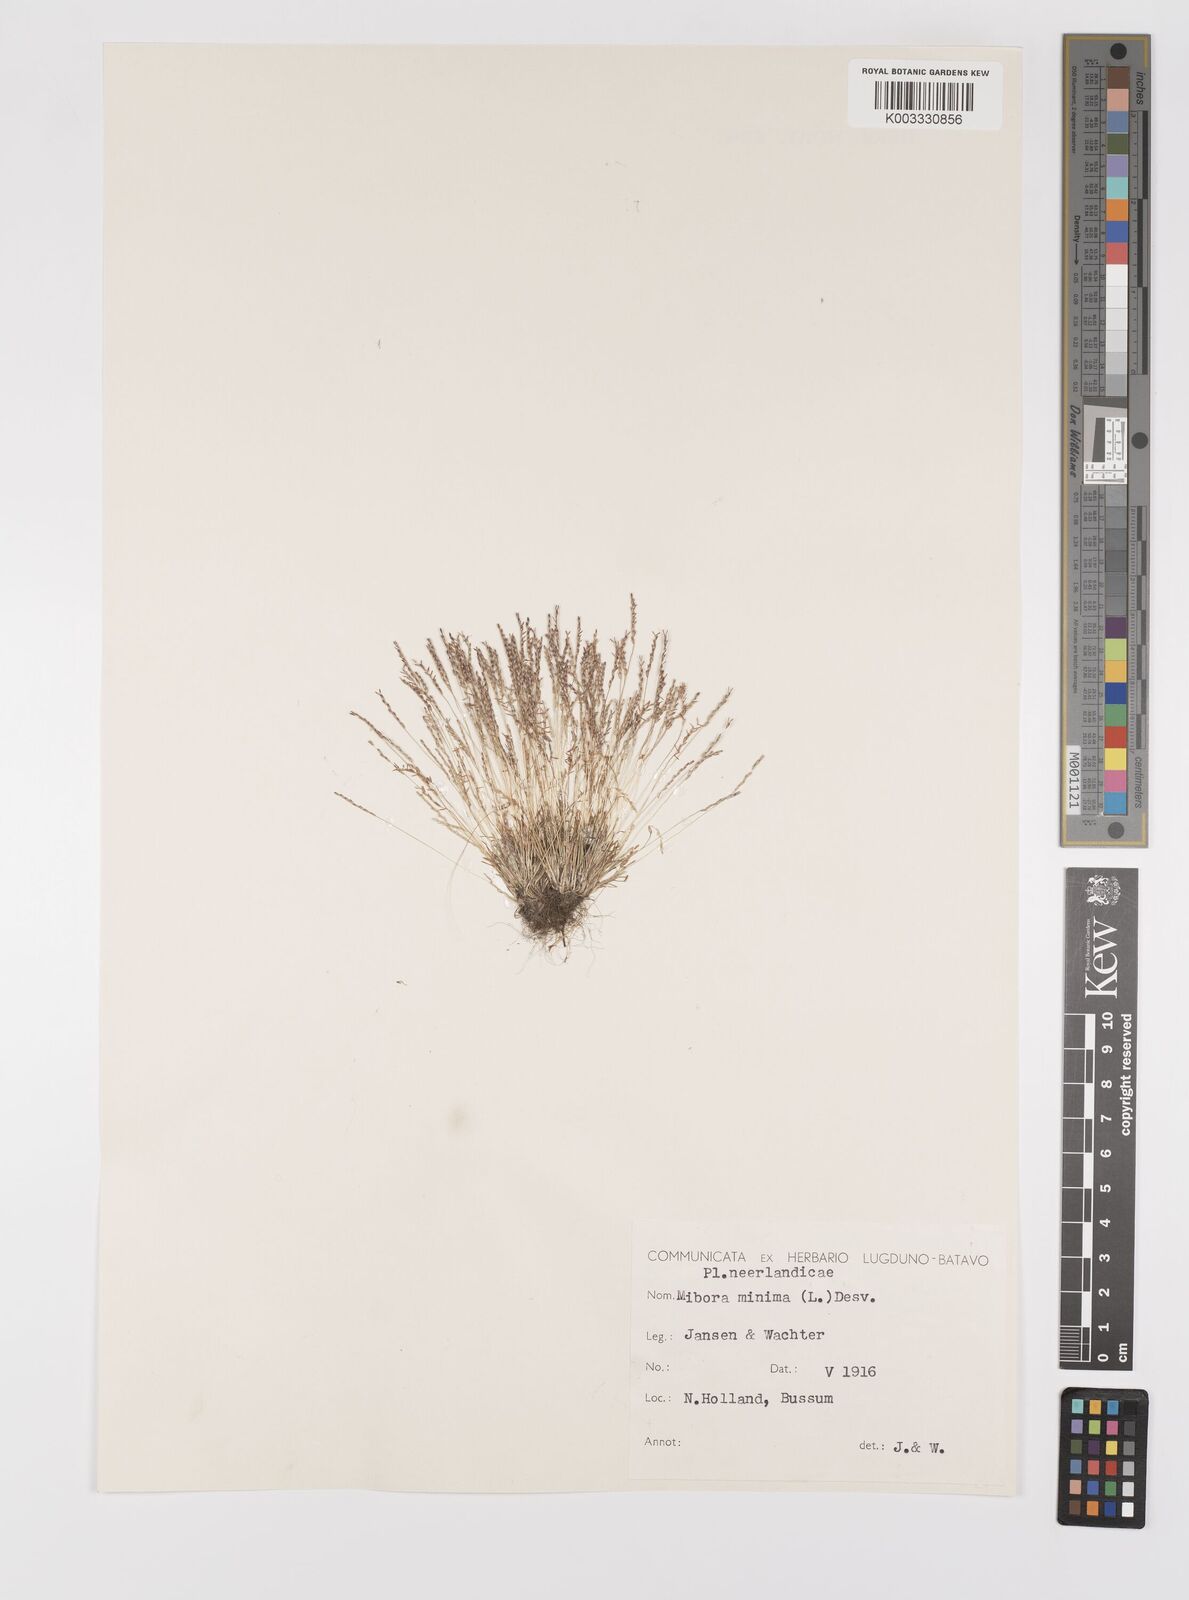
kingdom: Plantae
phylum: Tracheophyta
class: Liliopsida
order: Poales
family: Poaceae
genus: Mibora
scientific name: Mibora minima
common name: Early sand-grass
